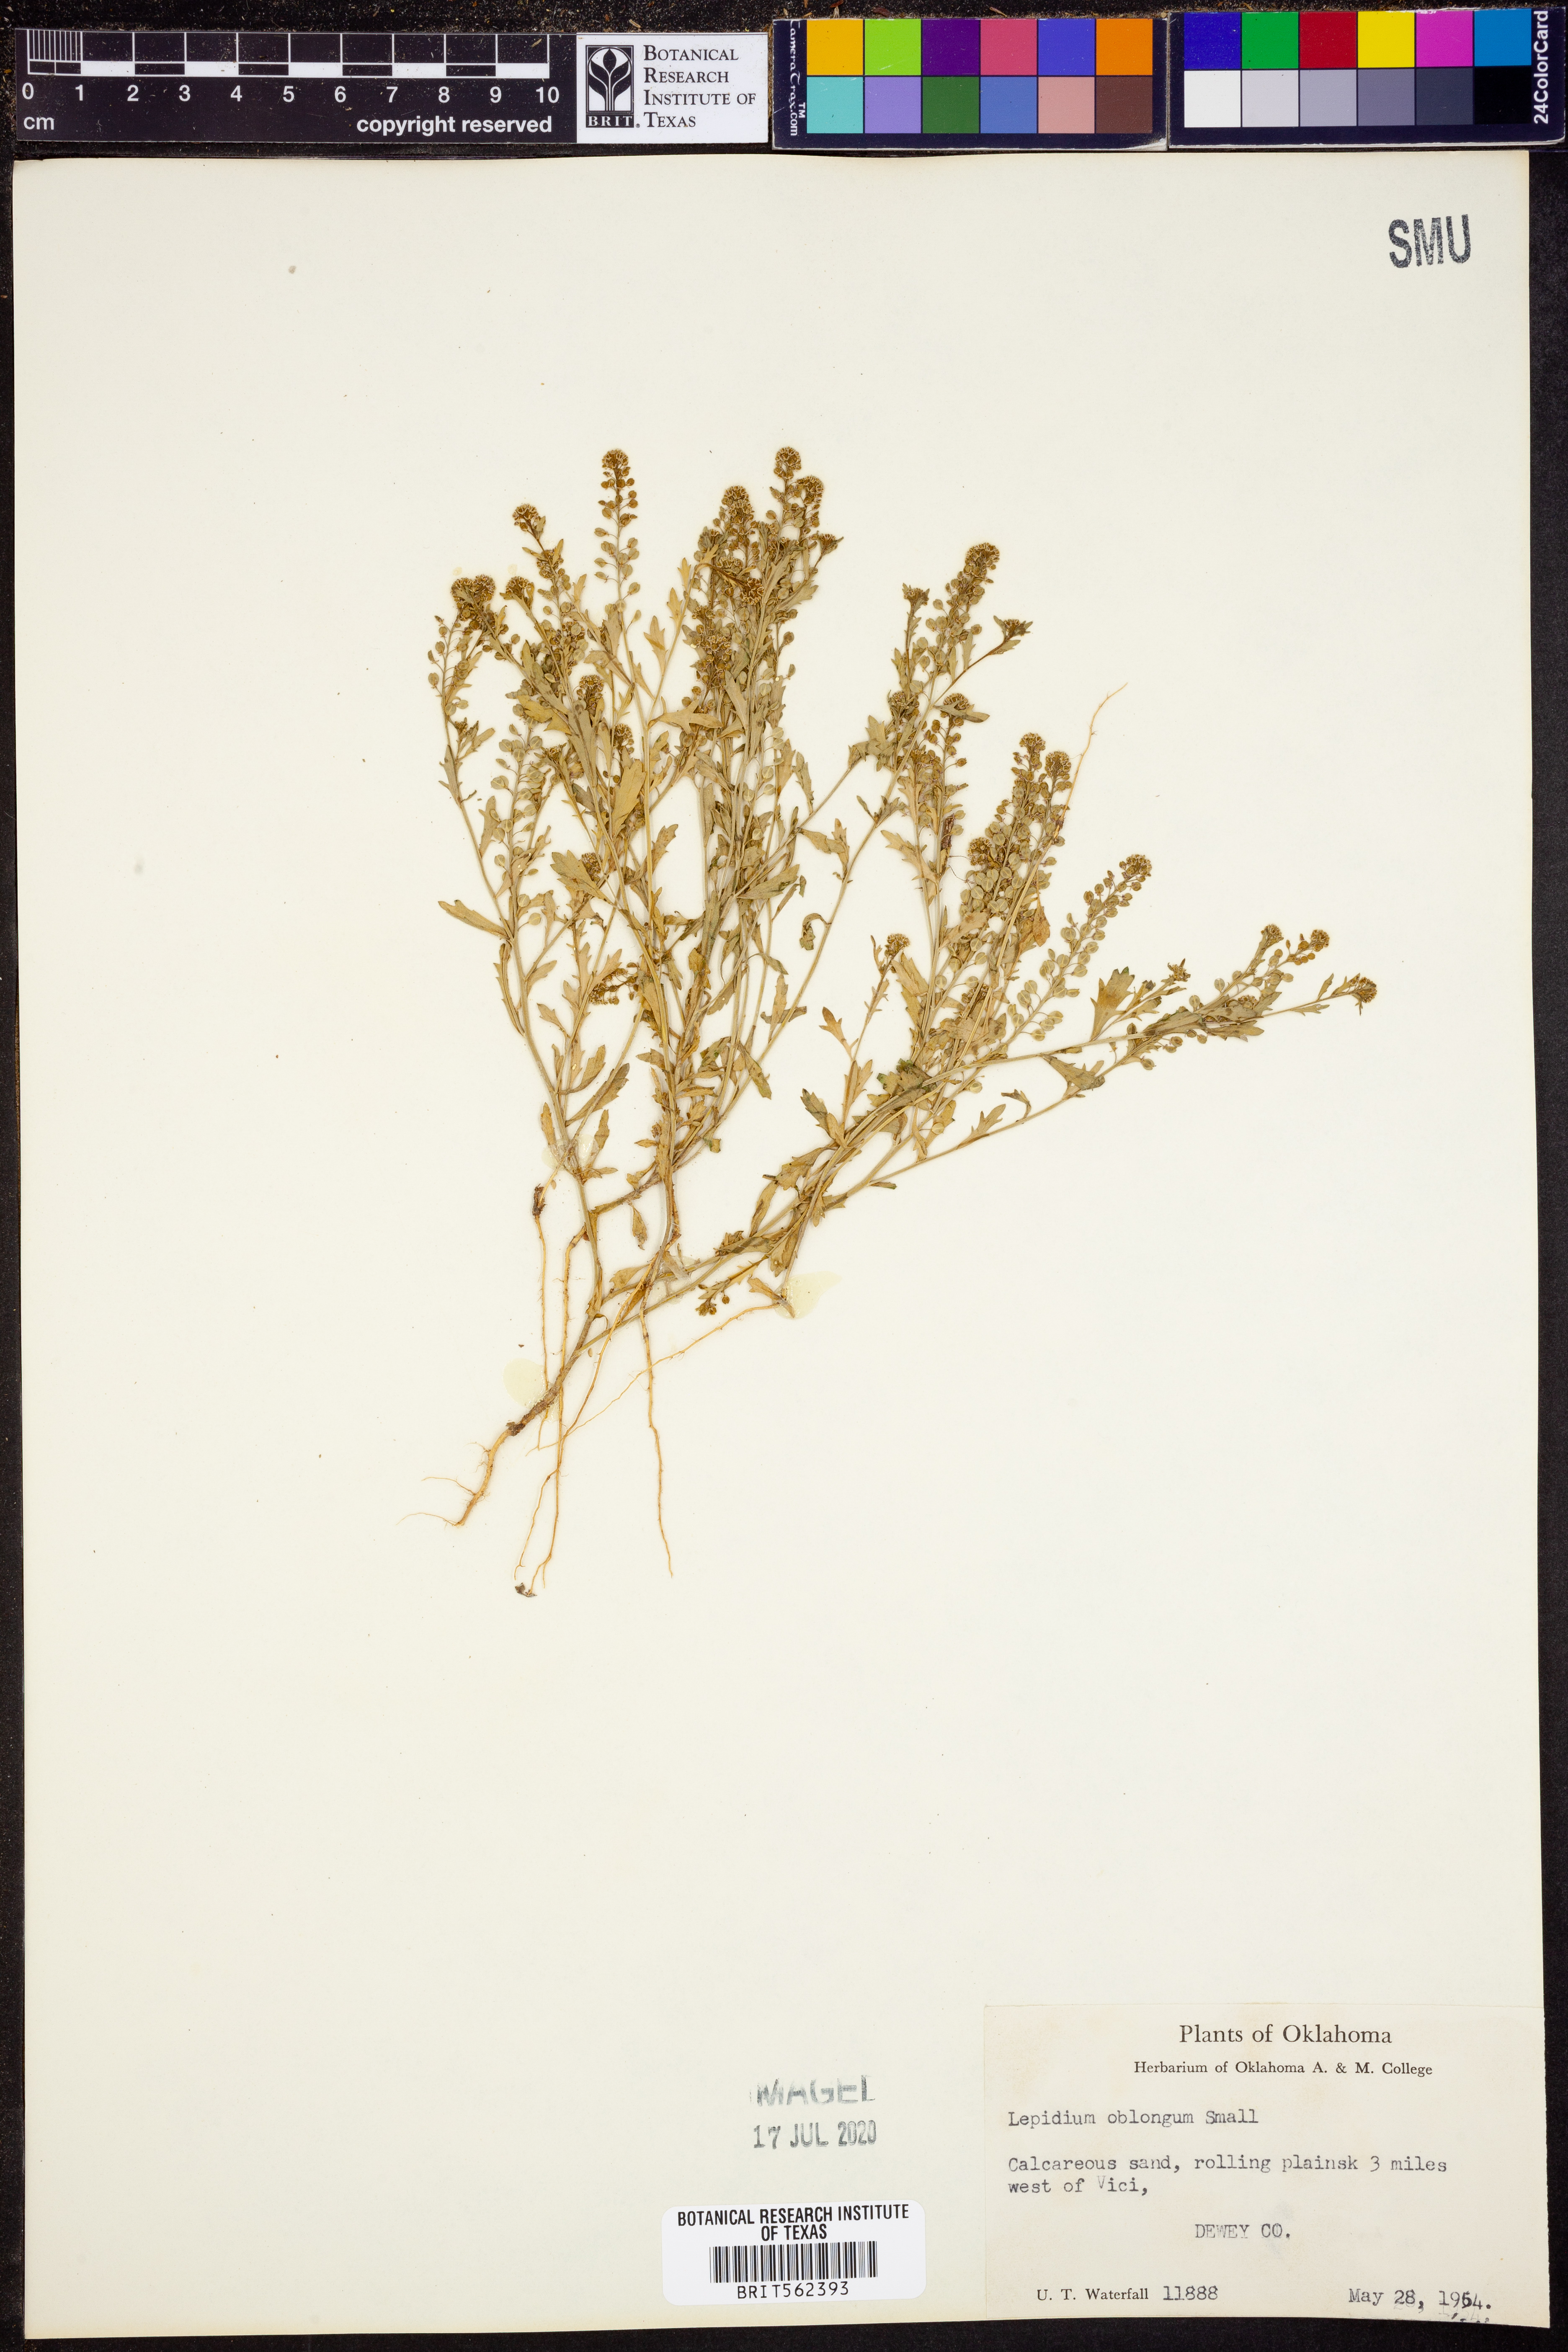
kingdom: Plantae
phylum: Tracheophyta
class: Magnoliopsida
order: Brassicales
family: Brassicaceae
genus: Lepidium
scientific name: Lepidium oblongum
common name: Veiny pepperweed
